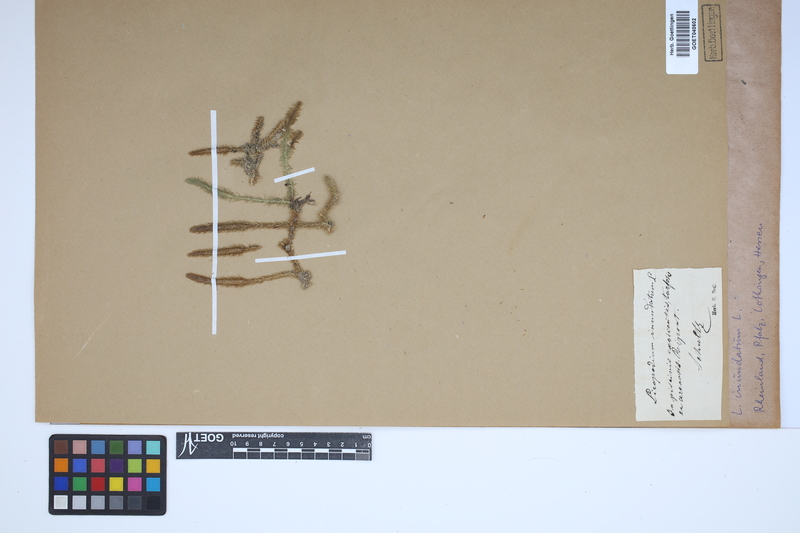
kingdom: Plantae
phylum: Tracheophyta
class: Lycopodiopsida
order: Lycopodiales
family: Lycopodiaceae
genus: Lycopodiella
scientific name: Lycopodiella inundata
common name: Marsh clubmoss
